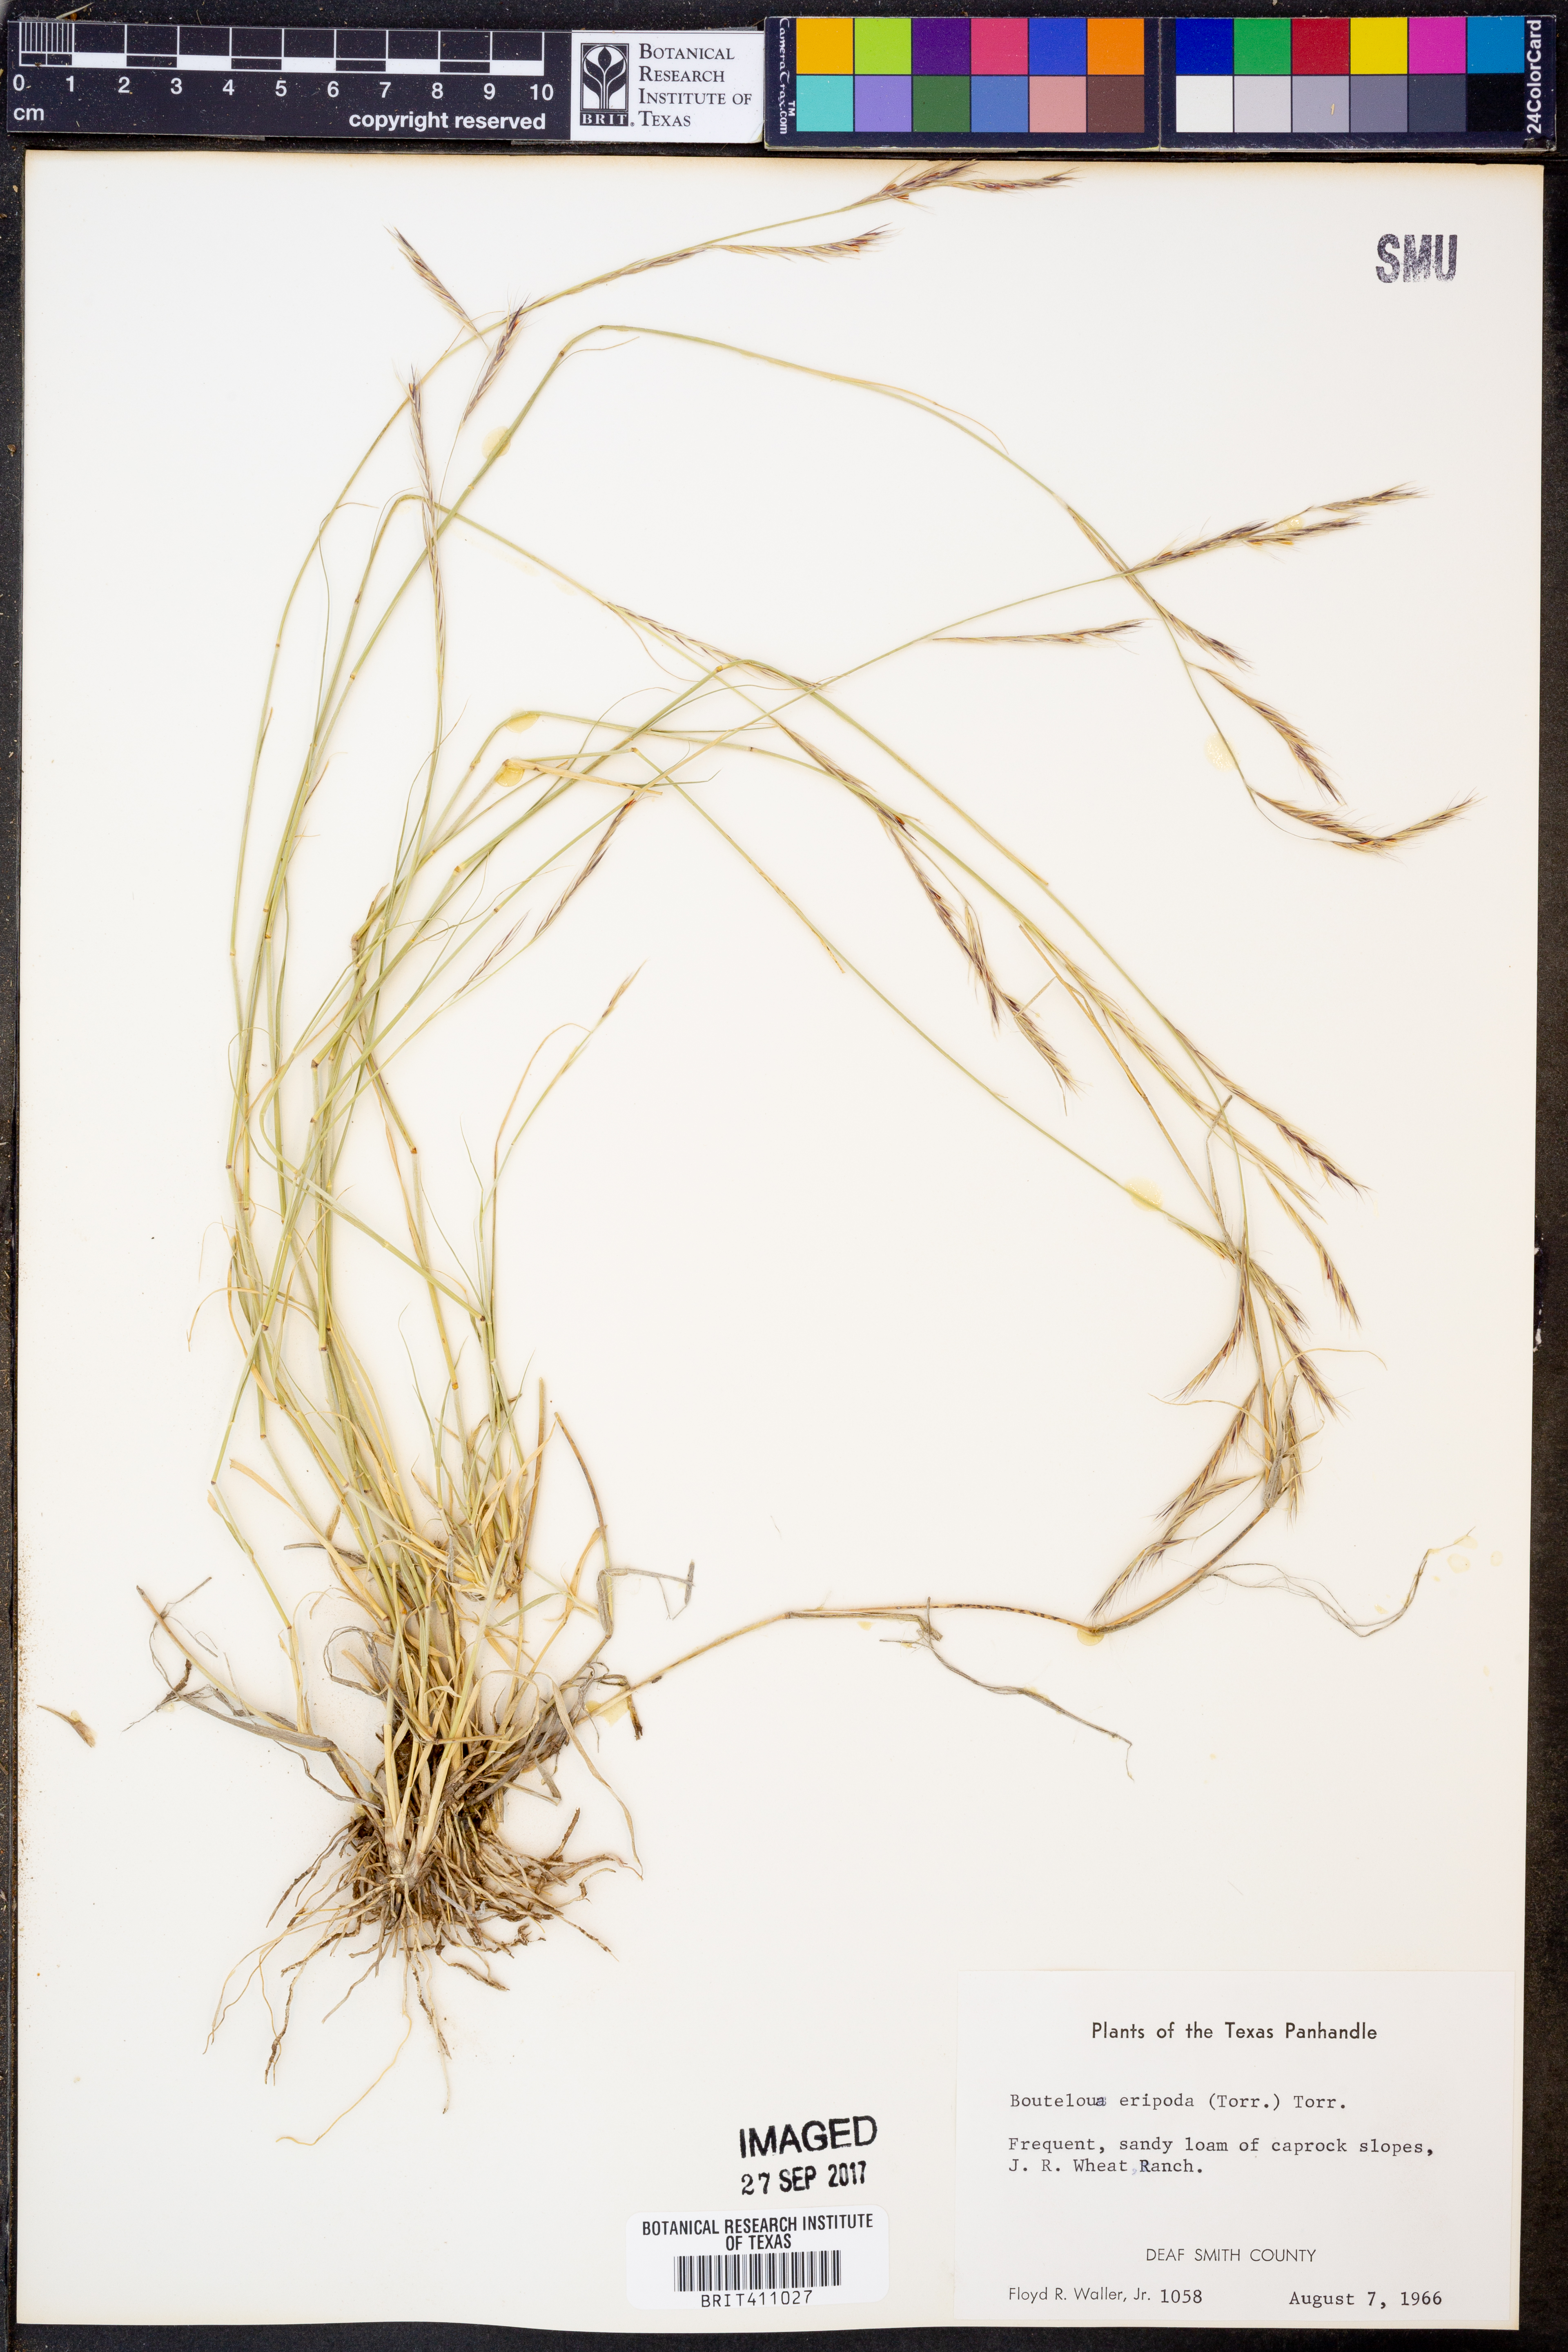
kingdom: Plantae
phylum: Tracheophyta
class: Liliopsida
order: Poales
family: Poaceae
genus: Bouteloua
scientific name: Bouteloua eriopoda
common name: Woolly foot grama
